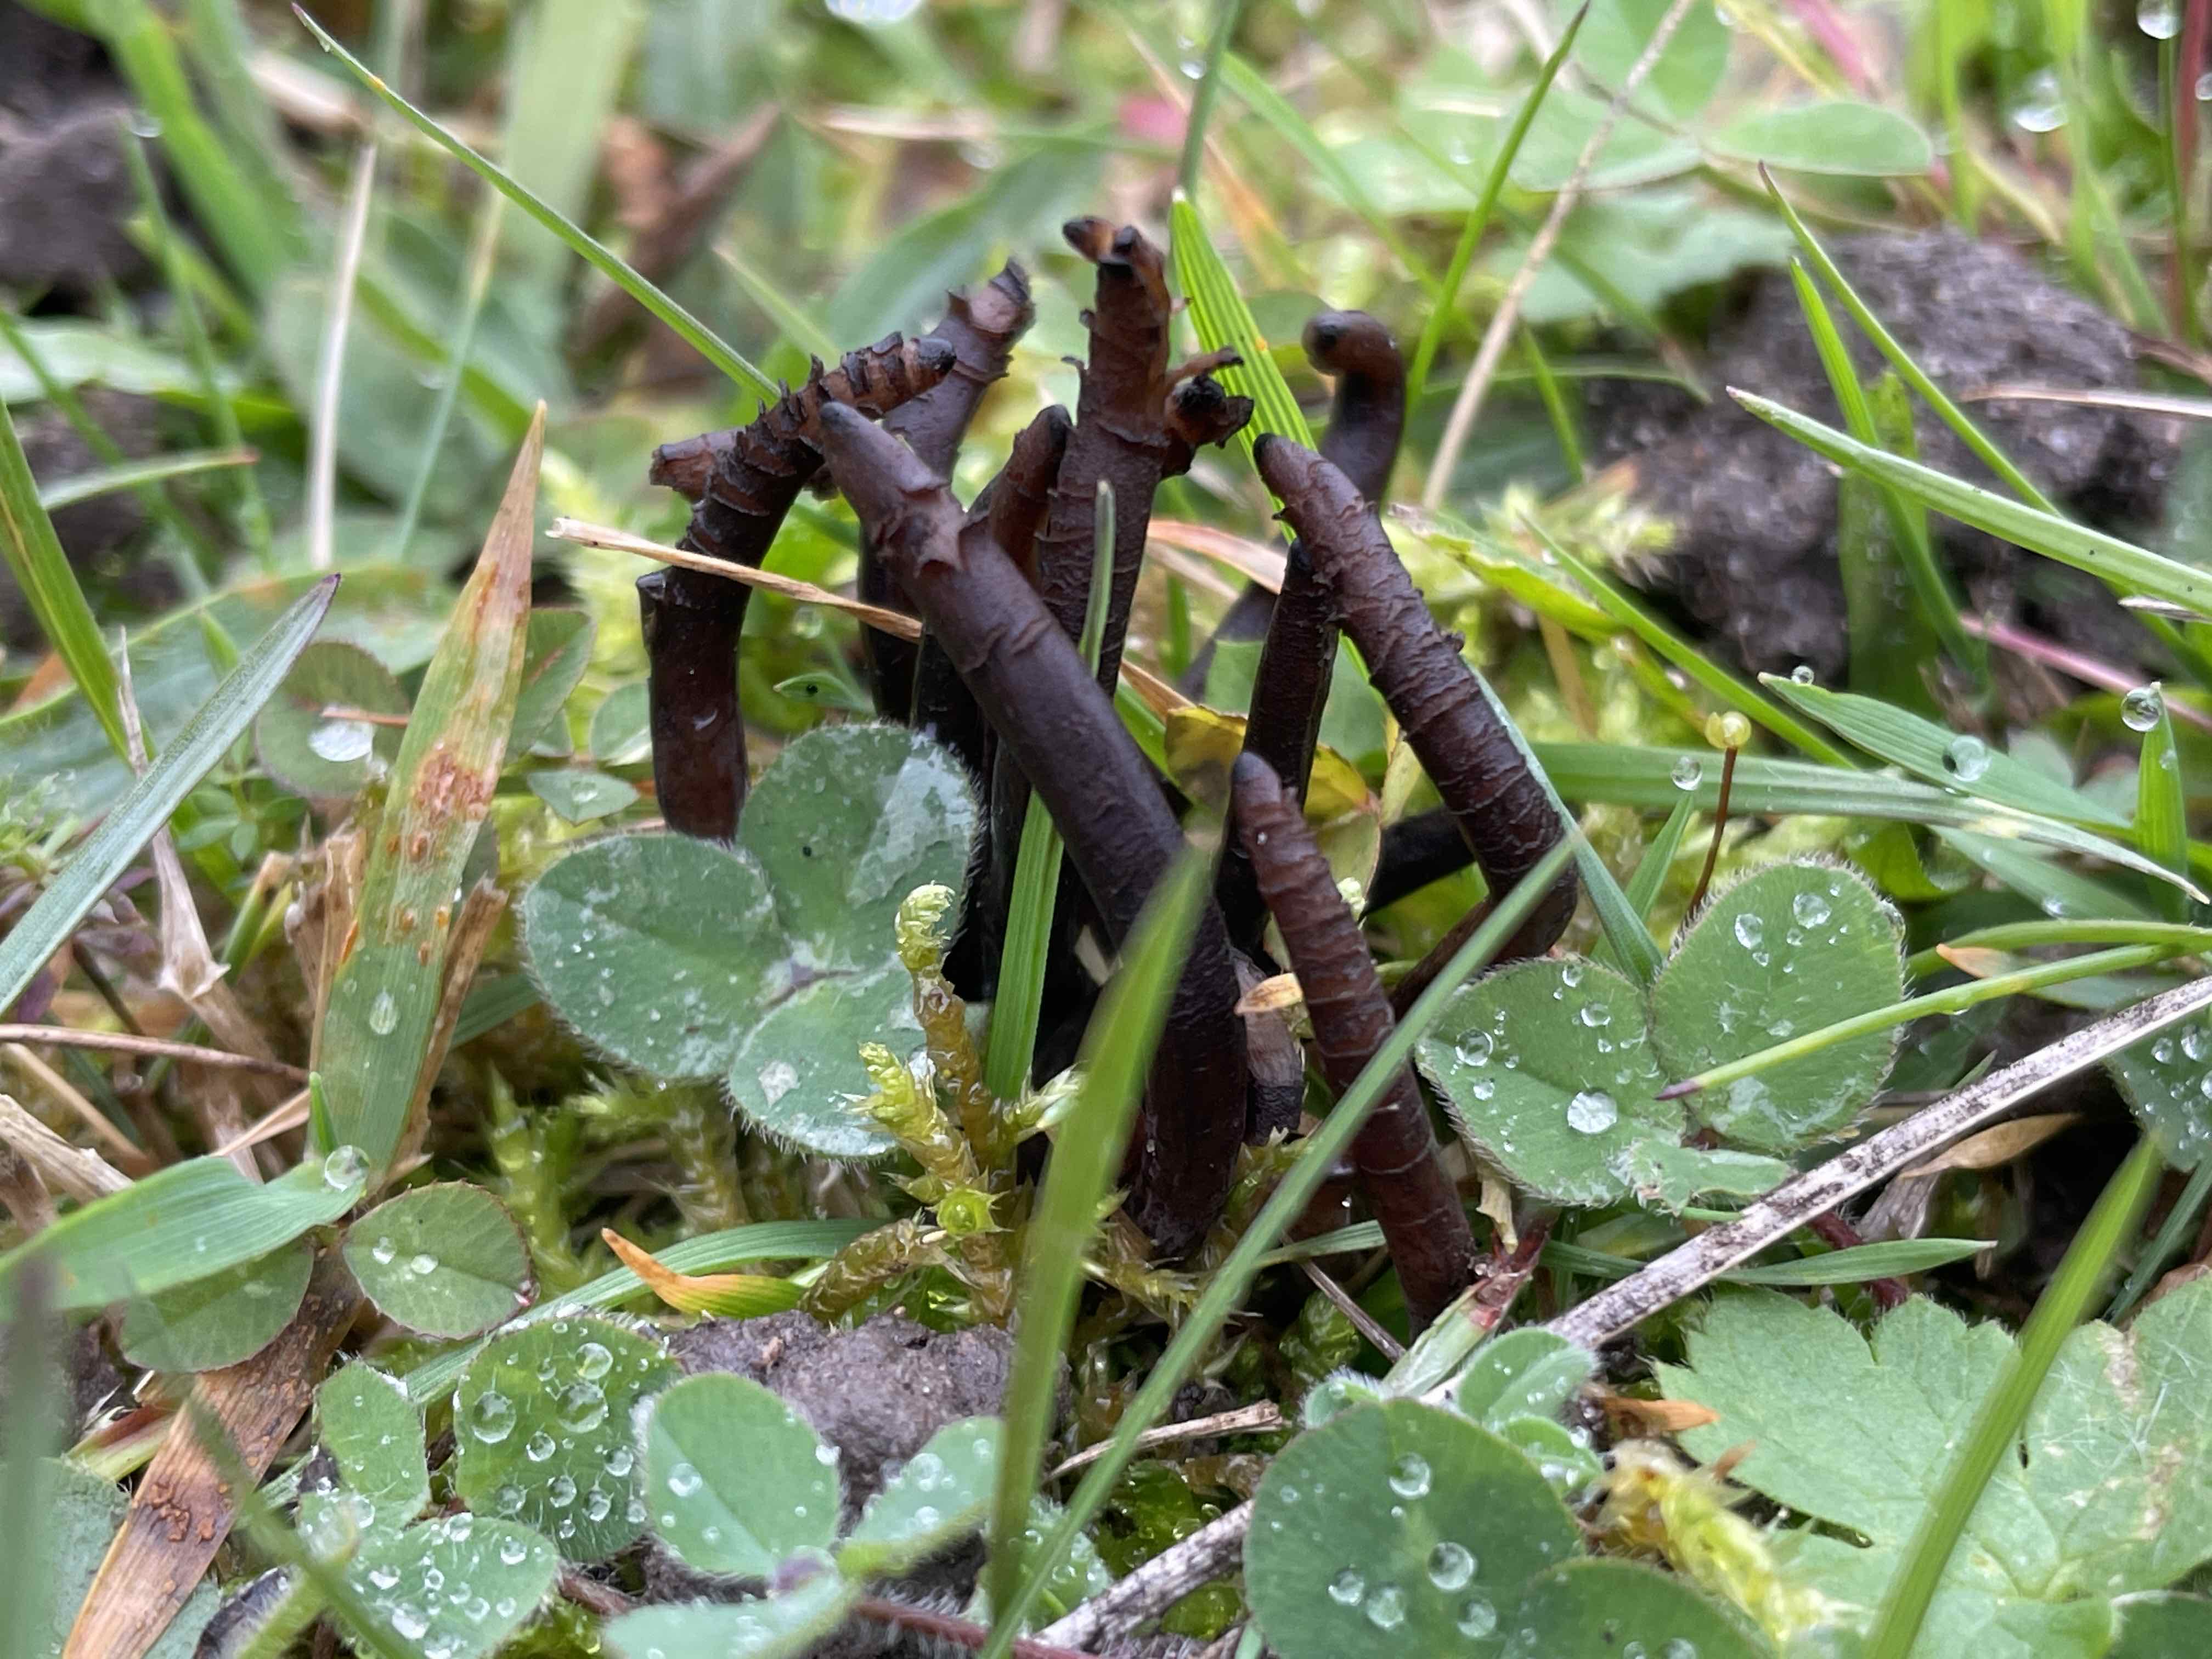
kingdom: Fungi
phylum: Basidiomycota
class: Agaricomycetes
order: Agaricales
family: Clavariaceae
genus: Clavaria
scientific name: Clavaria pullei
